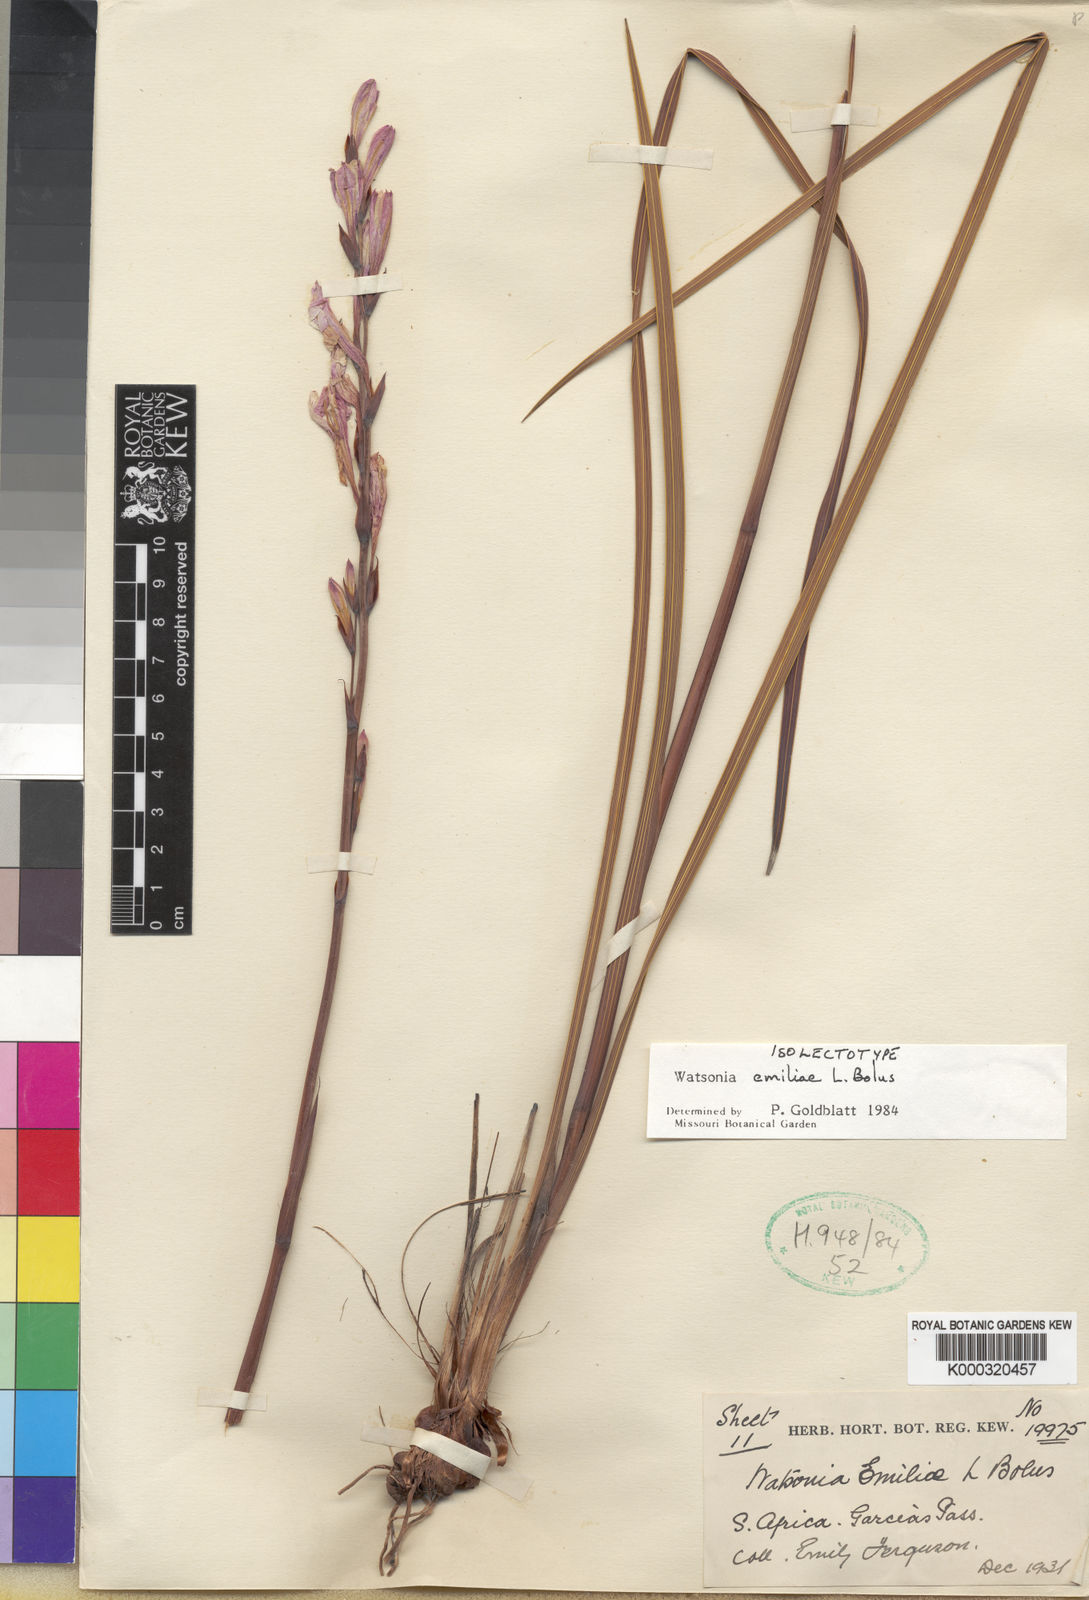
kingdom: Plantae
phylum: Tracheophyta
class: Liliopsida
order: Asparagales
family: Iridaceae
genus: Watsonia
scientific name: Watsonia emiliae
